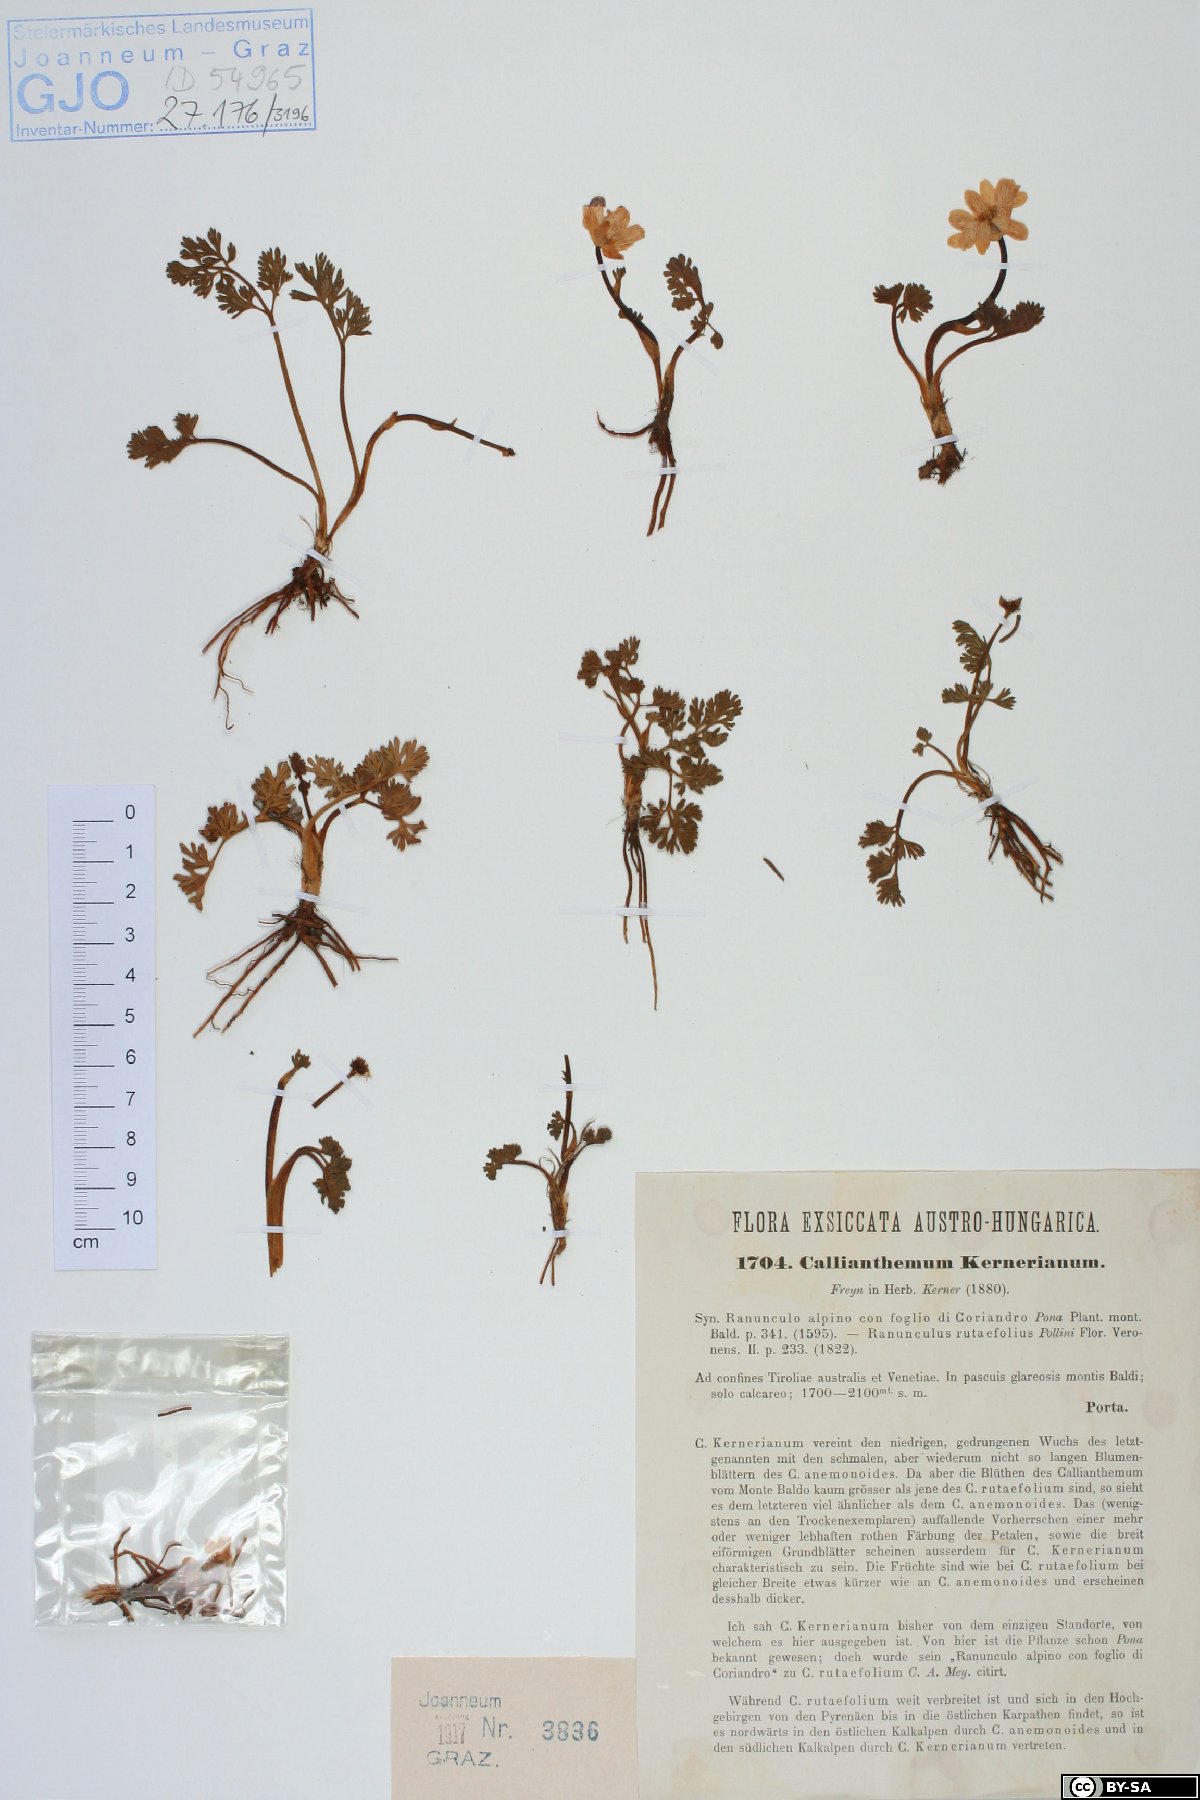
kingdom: Plantae
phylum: Tracheophyta
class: Magnoliopsida
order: Ranunculales
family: Ranunculaceae
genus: Callianthemum
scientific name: Callianthemum kernerianum
